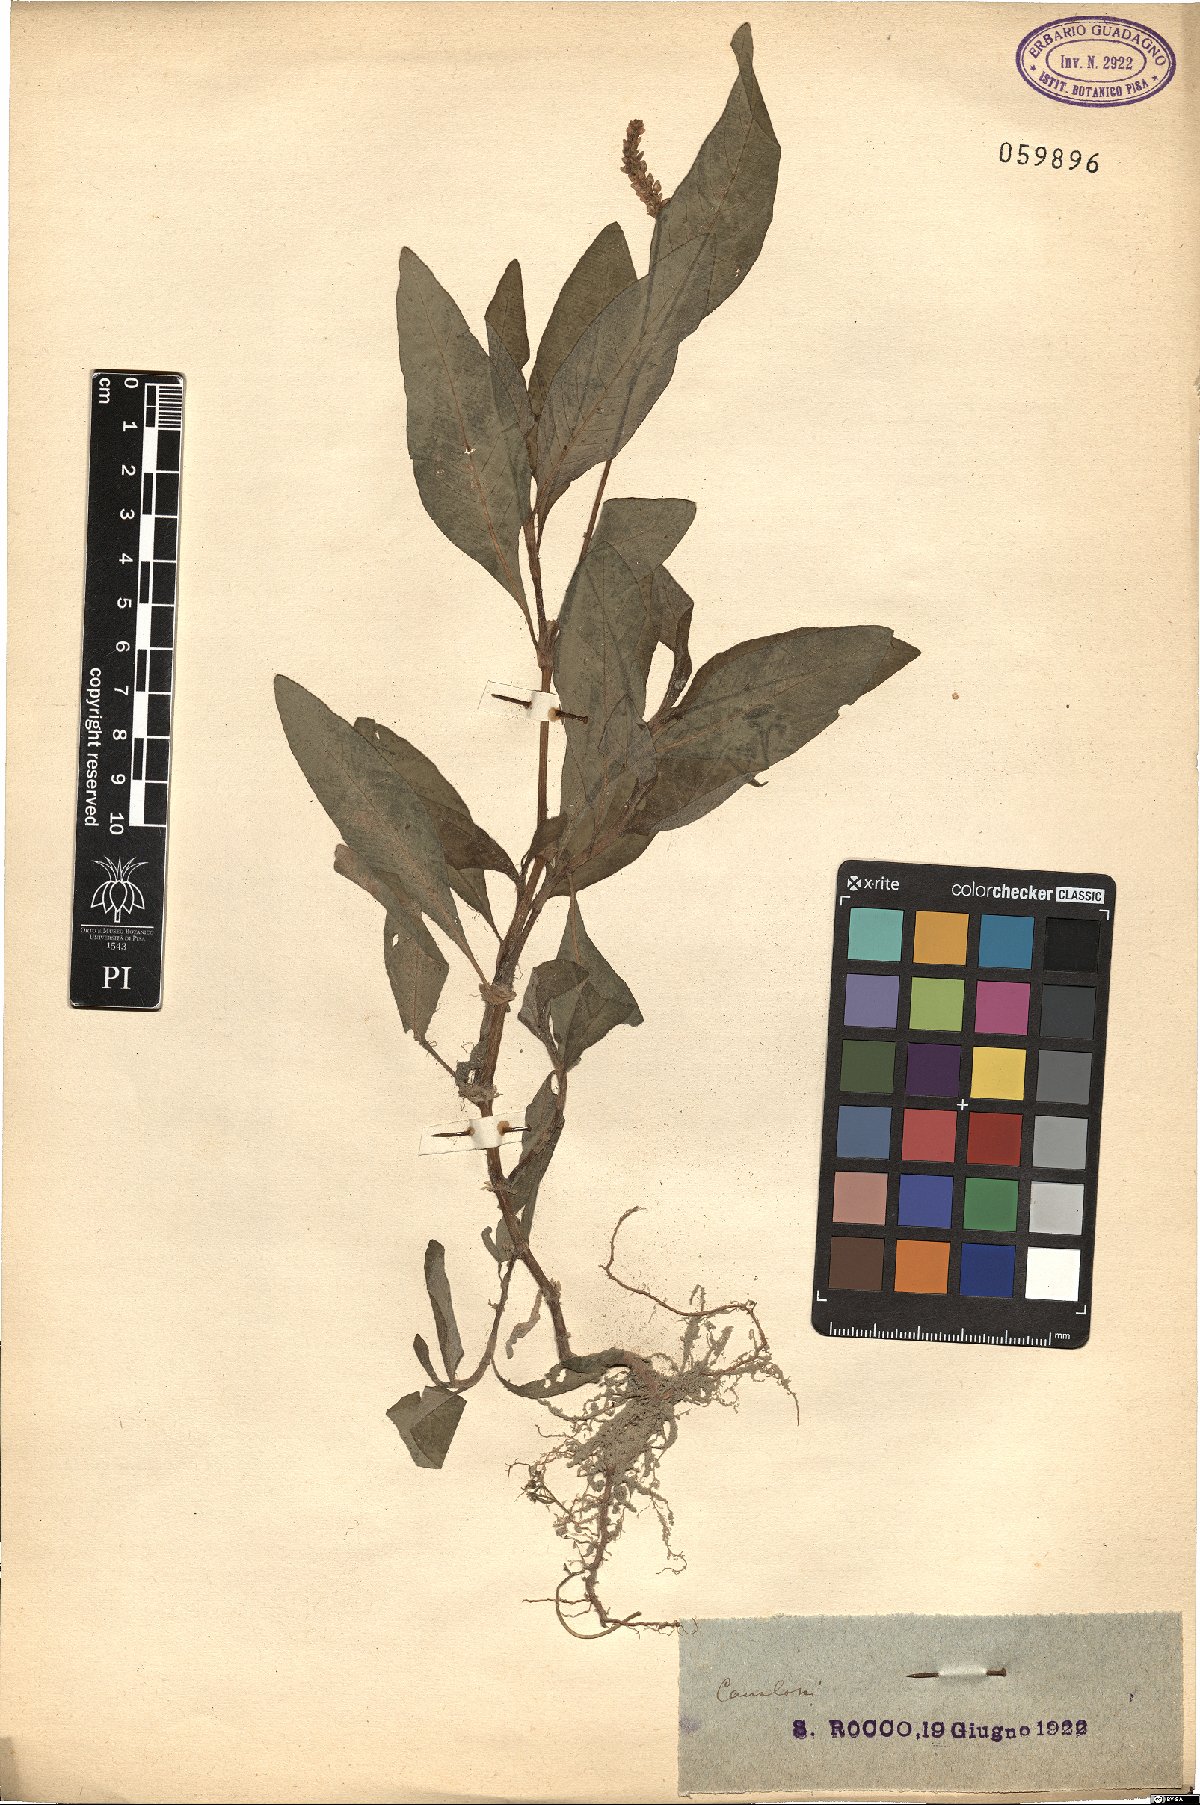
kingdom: Plantae
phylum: Tracheophyta
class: Magnoliopsida
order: Caryophyllales
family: Polygonaceae
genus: Persicaria
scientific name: Persicaria
